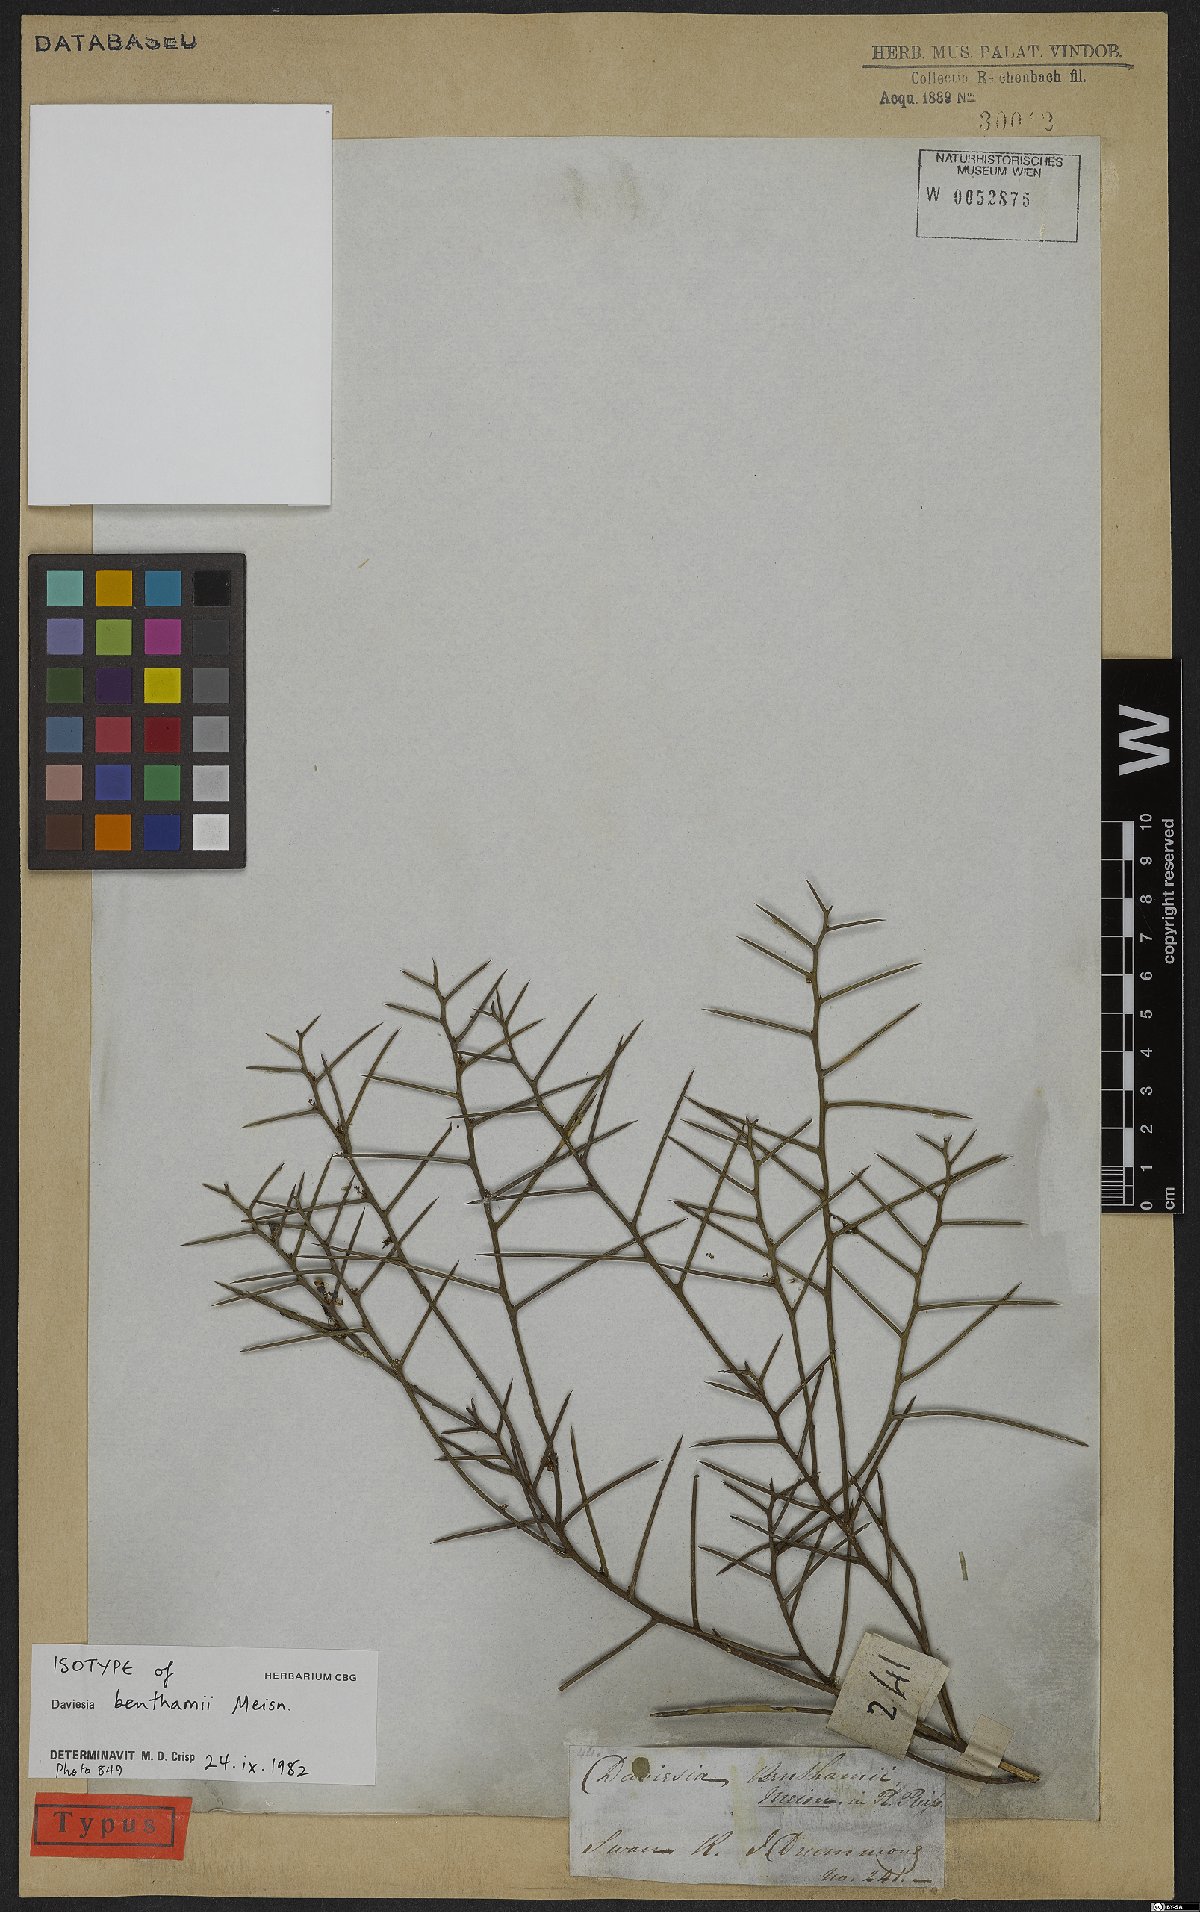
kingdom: Plantae
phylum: Tracheophyta
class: Magnoliopsida
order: Fabales
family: Fabaceae
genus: Daviesia
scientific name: Daviesia benthamii
